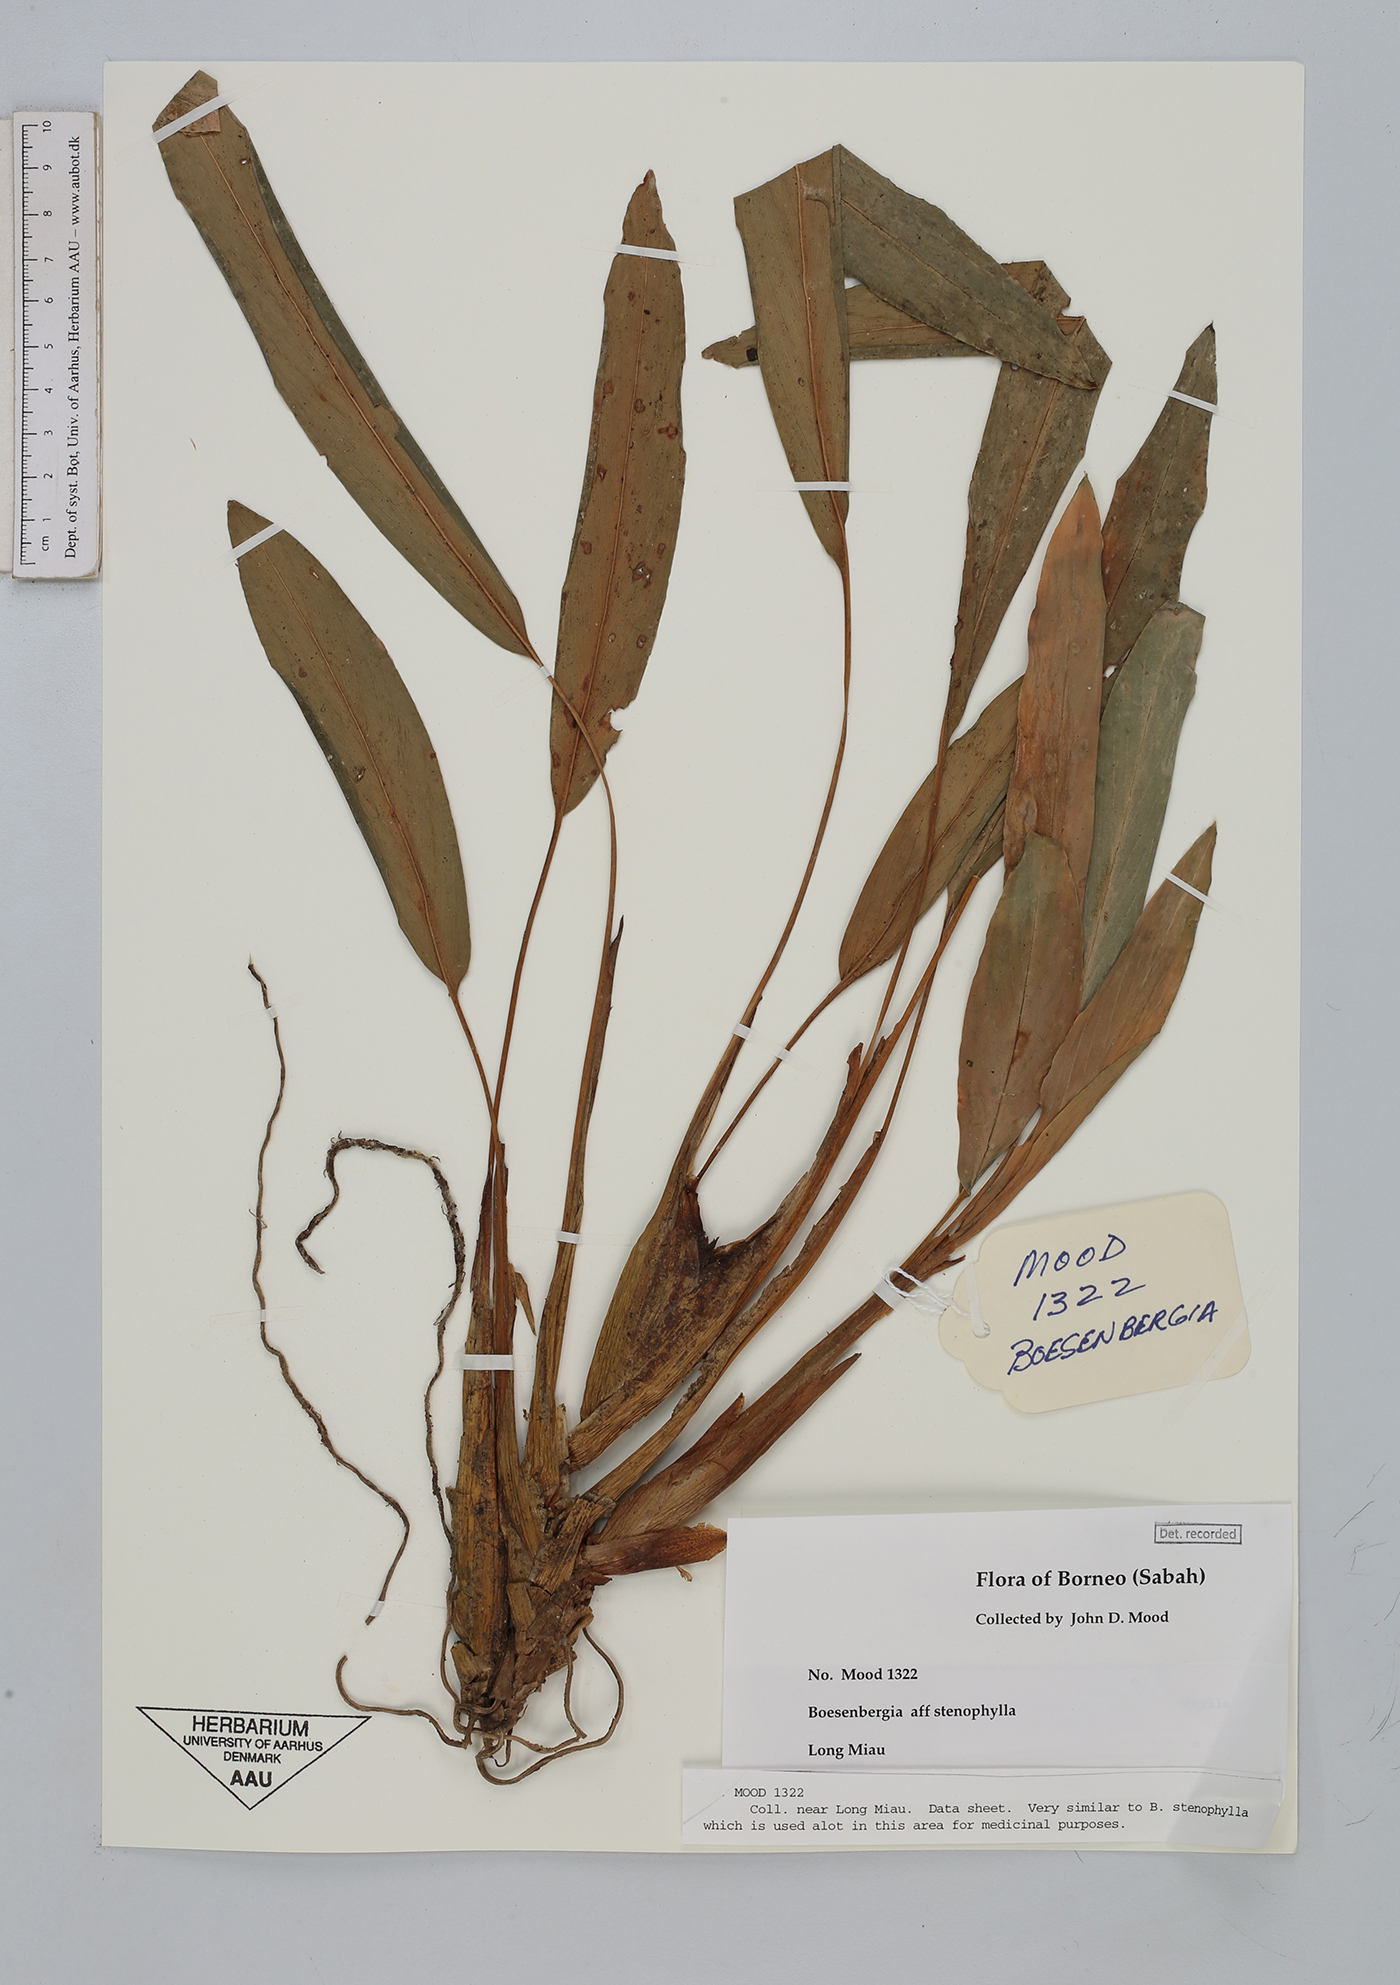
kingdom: Plantae
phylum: Tracheophyta
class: Liliopsida
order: Zingiberales
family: Zingiberaceae
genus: Boesenbergia
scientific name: Boesenbergia stenophylla
